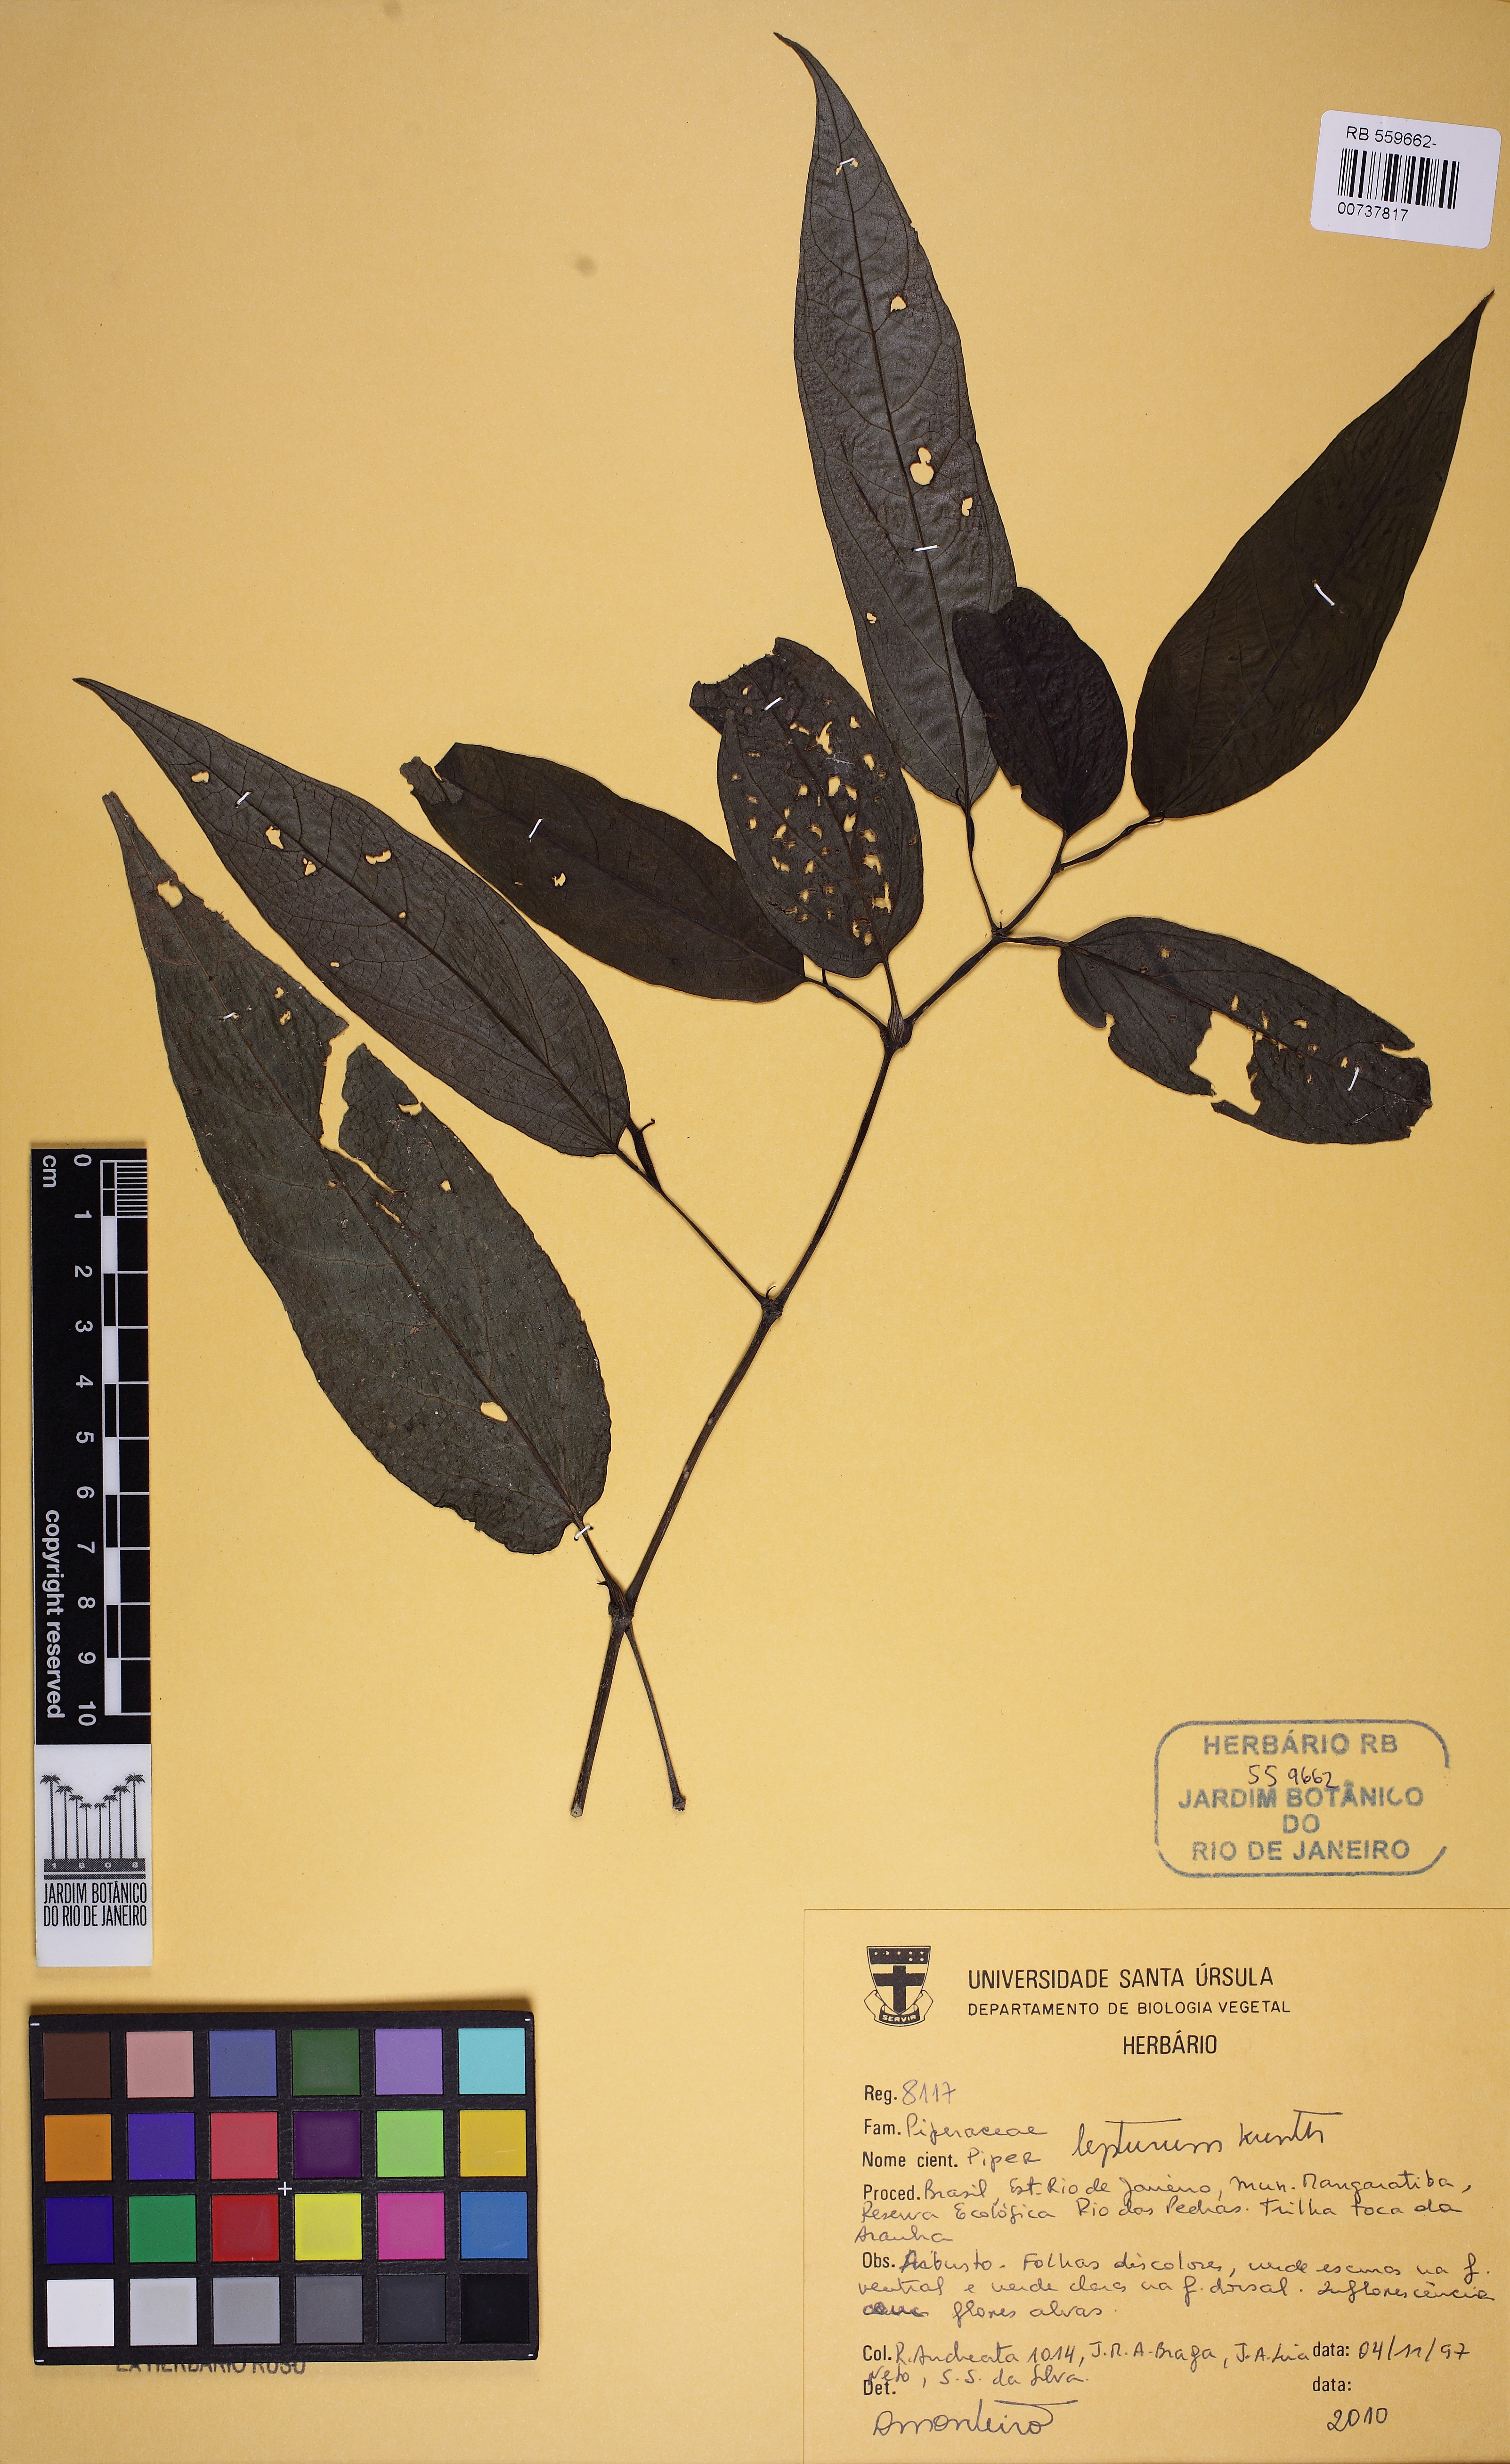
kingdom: Plantae
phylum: Tracheophyta
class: Magnoliopsida
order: Piperales
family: Piperaceae
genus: Piper
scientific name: Piper lepturum
